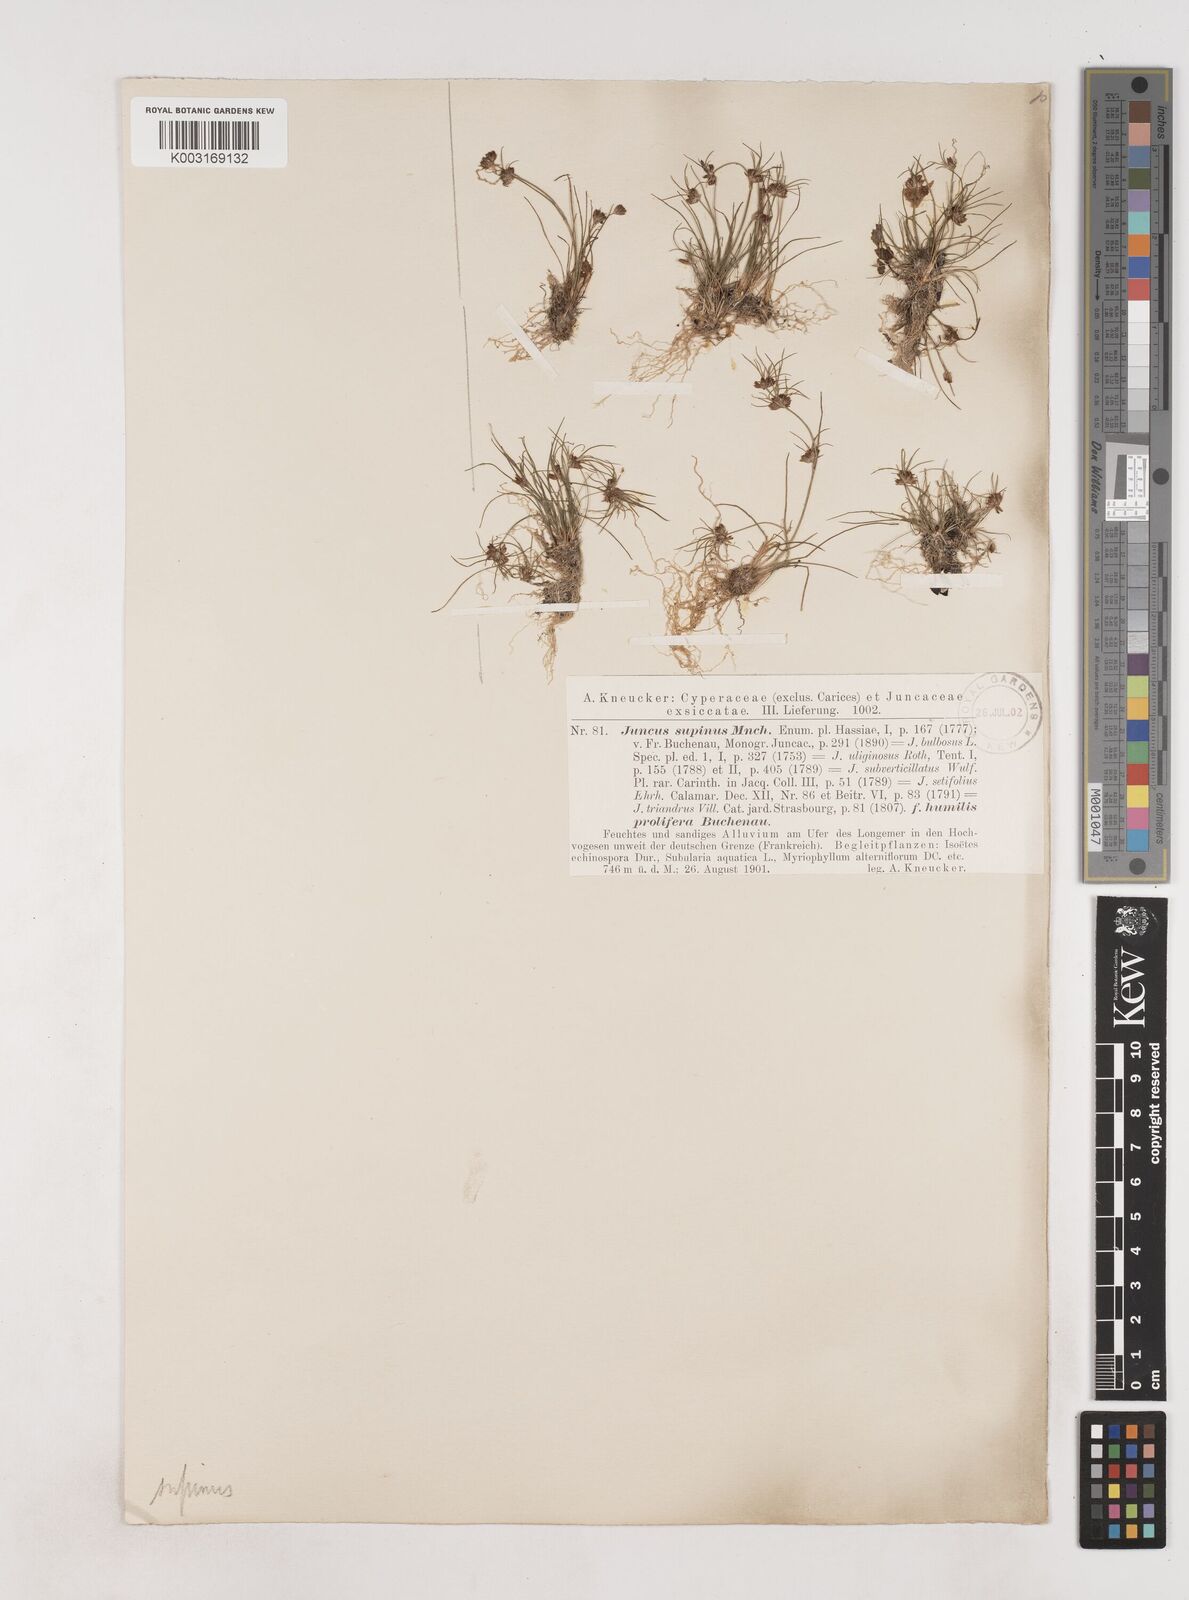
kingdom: Plantae
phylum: Tracheophyta
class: Liliopsida
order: Poales
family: Juncaceae
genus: Juncus
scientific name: Juncus bulbosus
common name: Bulbous rush
